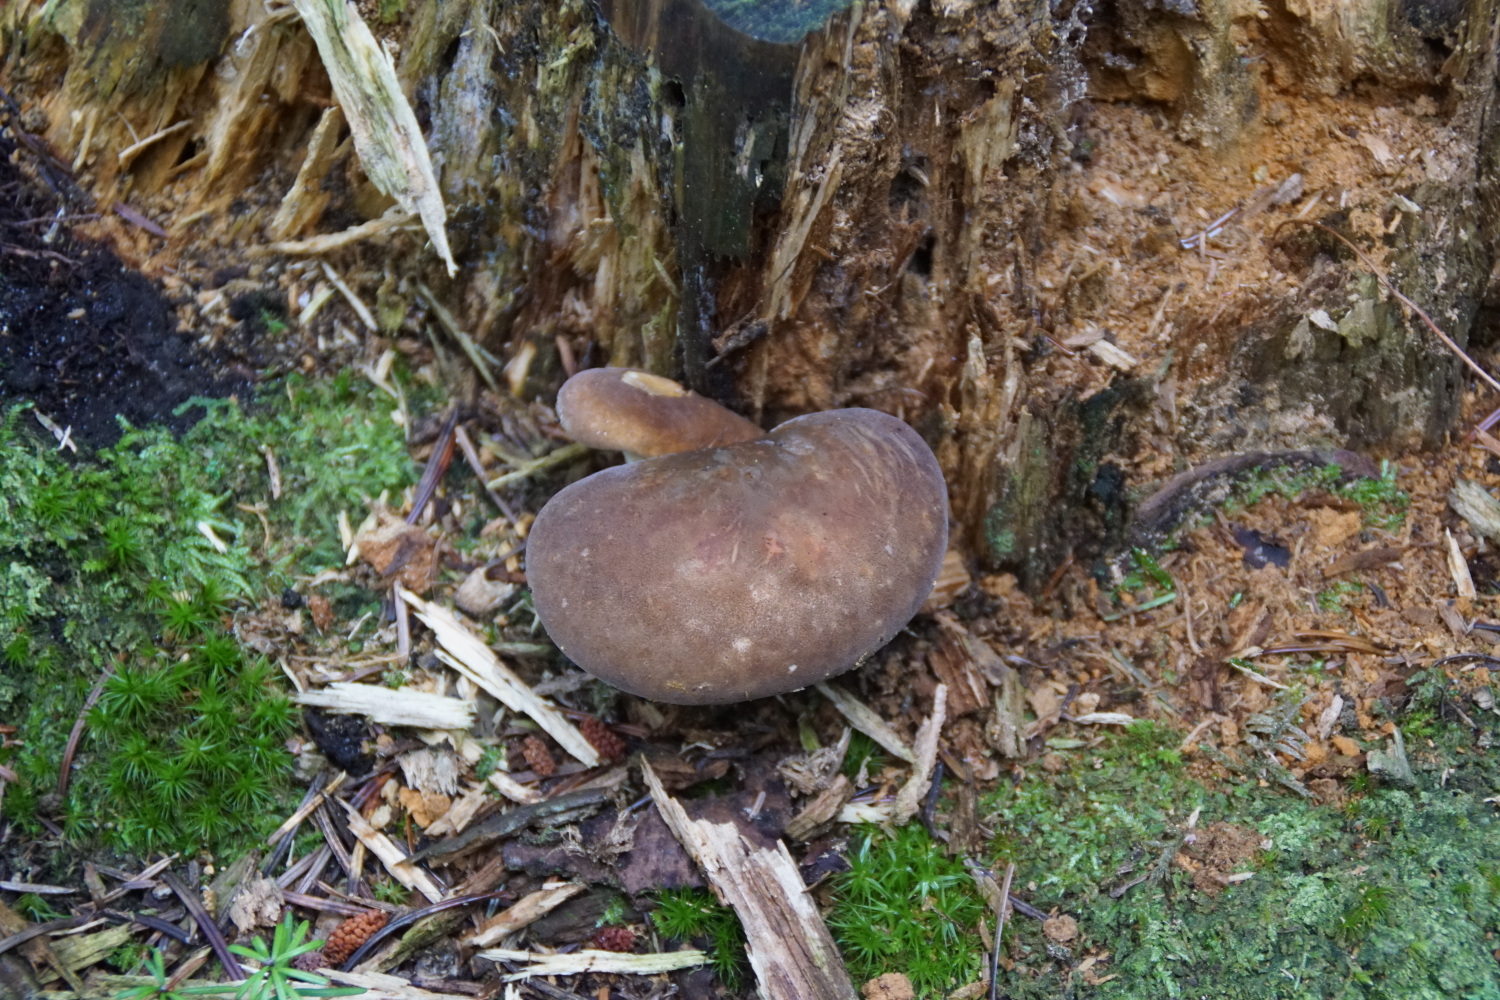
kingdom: Fungi
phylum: Basidiomycota
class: Agaricomycetes
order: Boletales
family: Tapinellaceae
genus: Tapinella
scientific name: Tapinella atrotomentosa
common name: sortfiltet viftesvamp
